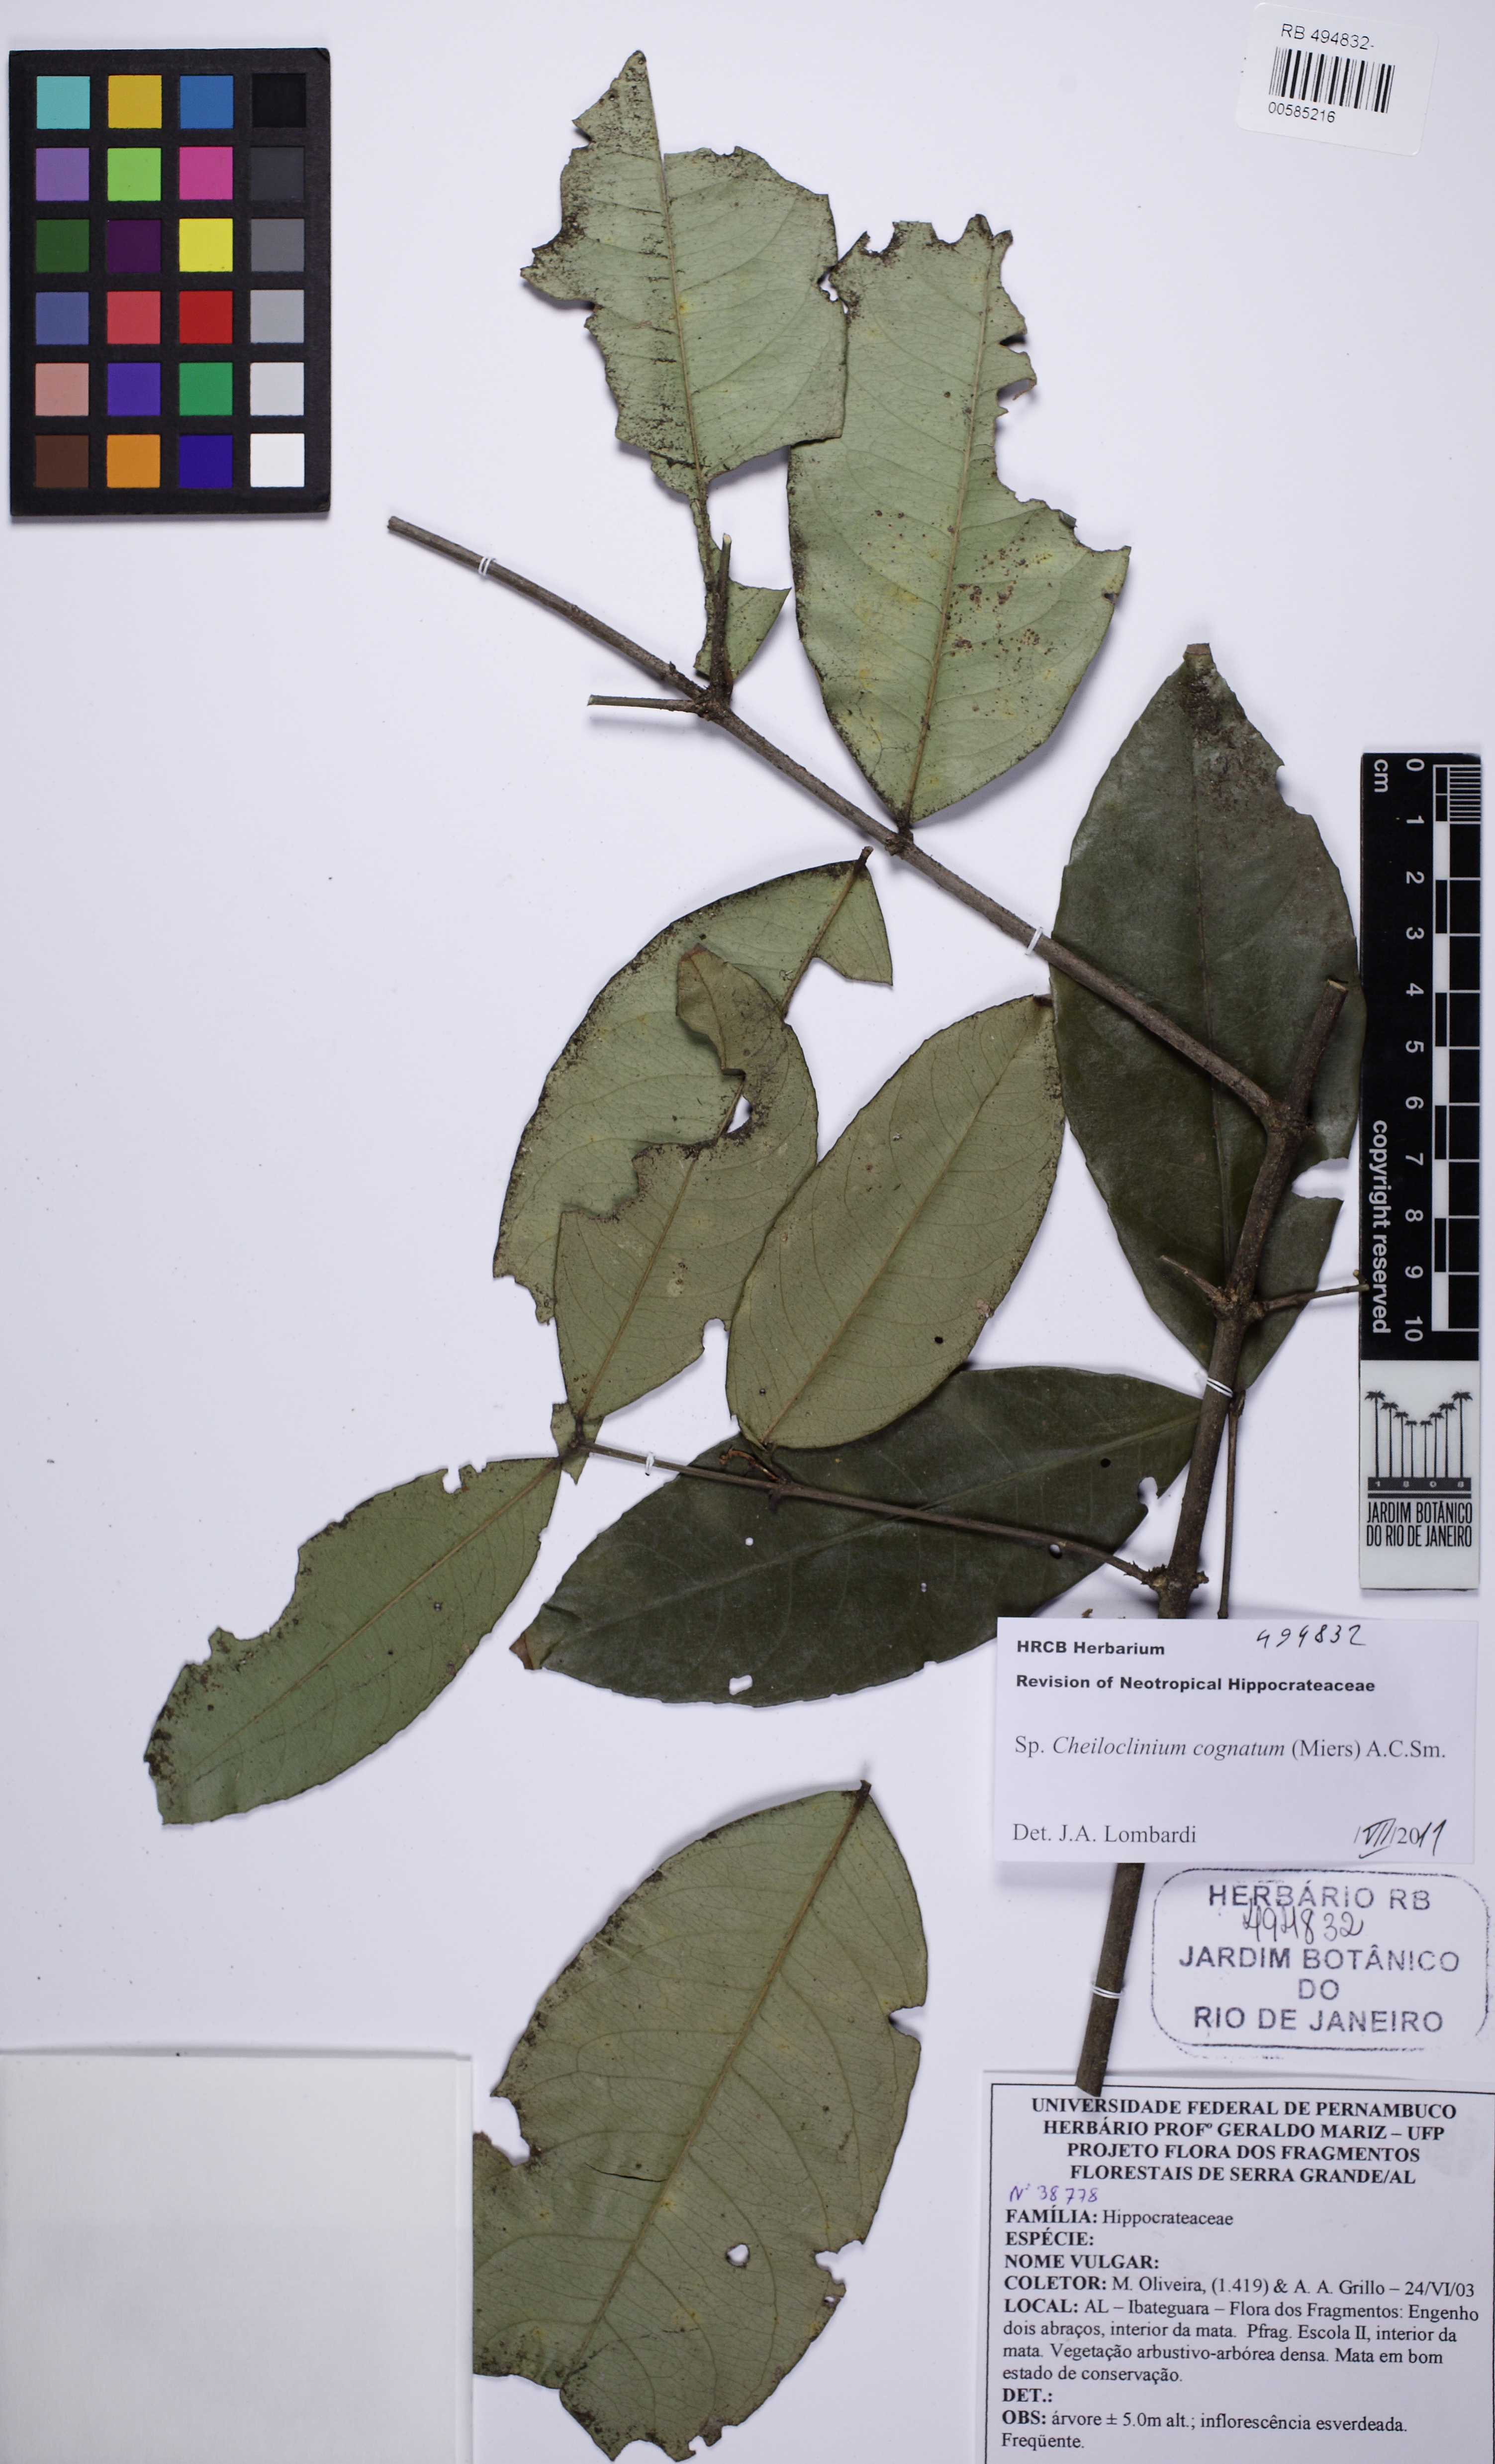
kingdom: Plantae
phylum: Tracheophyta
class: Magnoliopsida
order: Celastrales
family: Celastraceae
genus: Cheiloclinium
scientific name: Cheiloclinium cognatum
